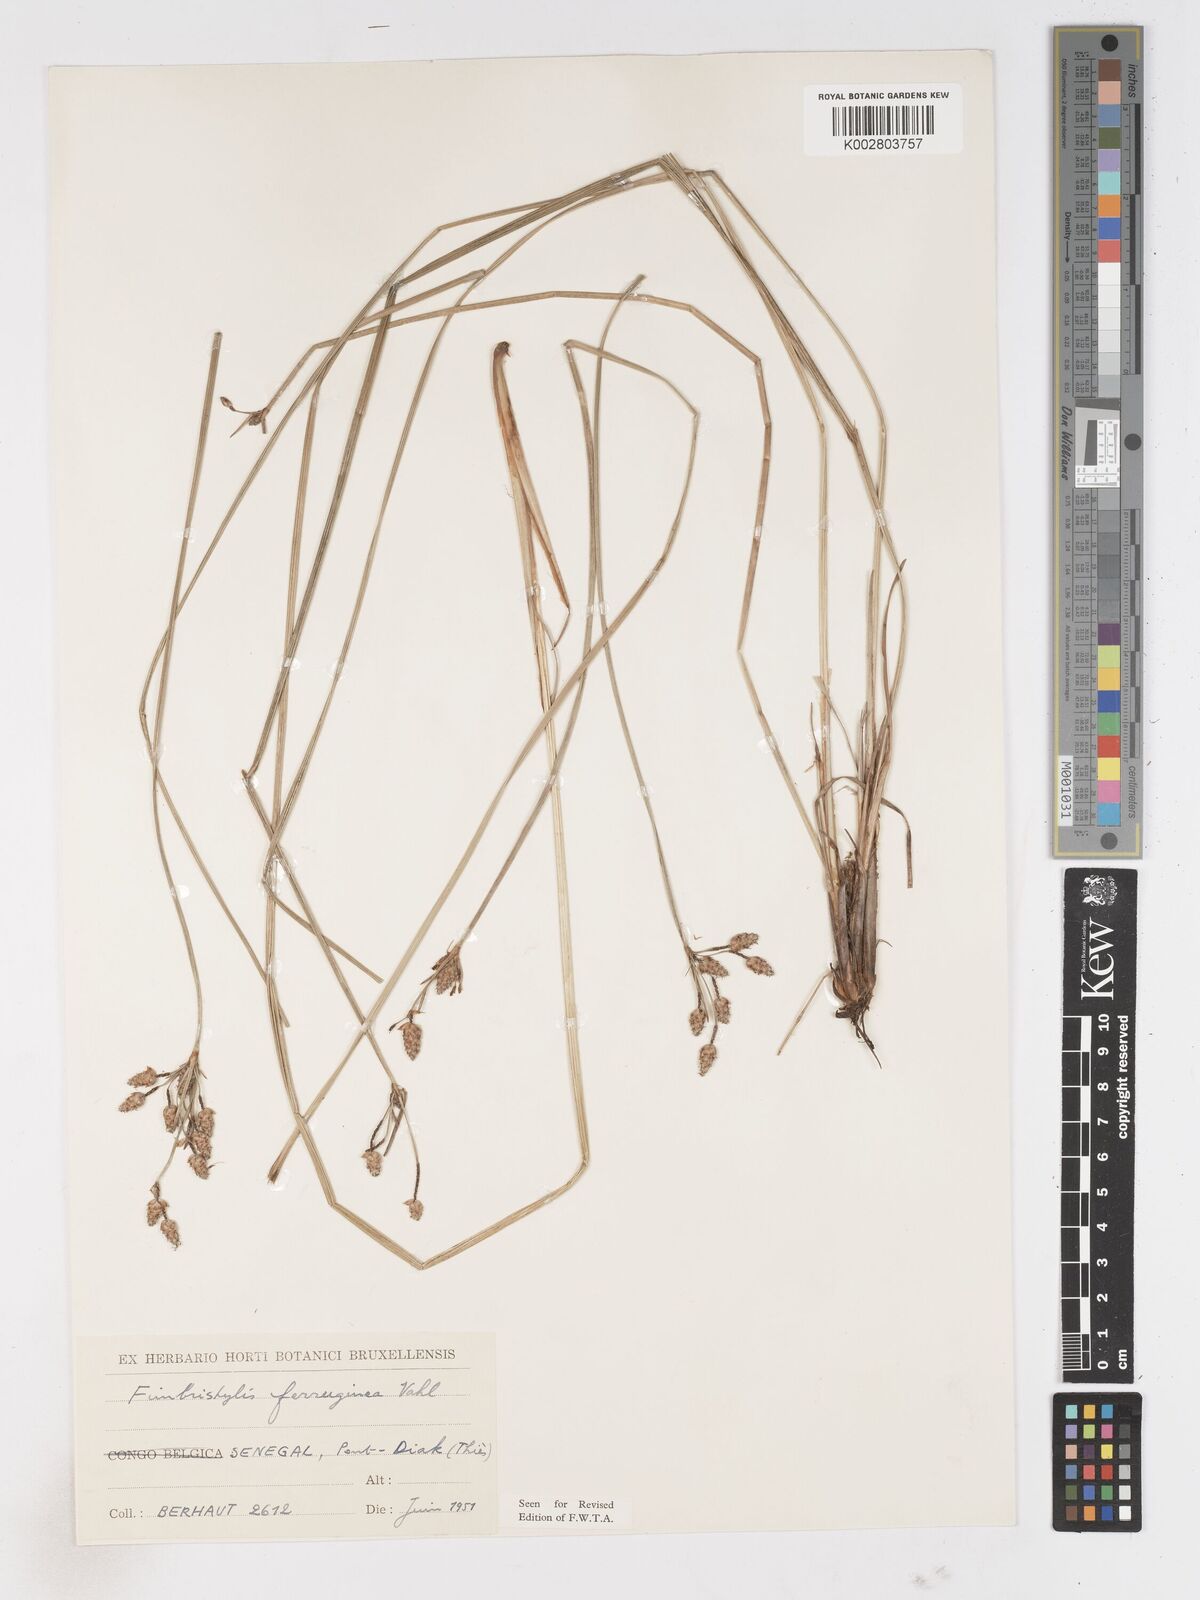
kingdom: Plantae
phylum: Tracheophyta
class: Liliopsida
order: Poales
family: Cyperaceae
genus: Fimbristylis
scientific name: Fimbristylis ferruginea
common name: West indian fimbry
